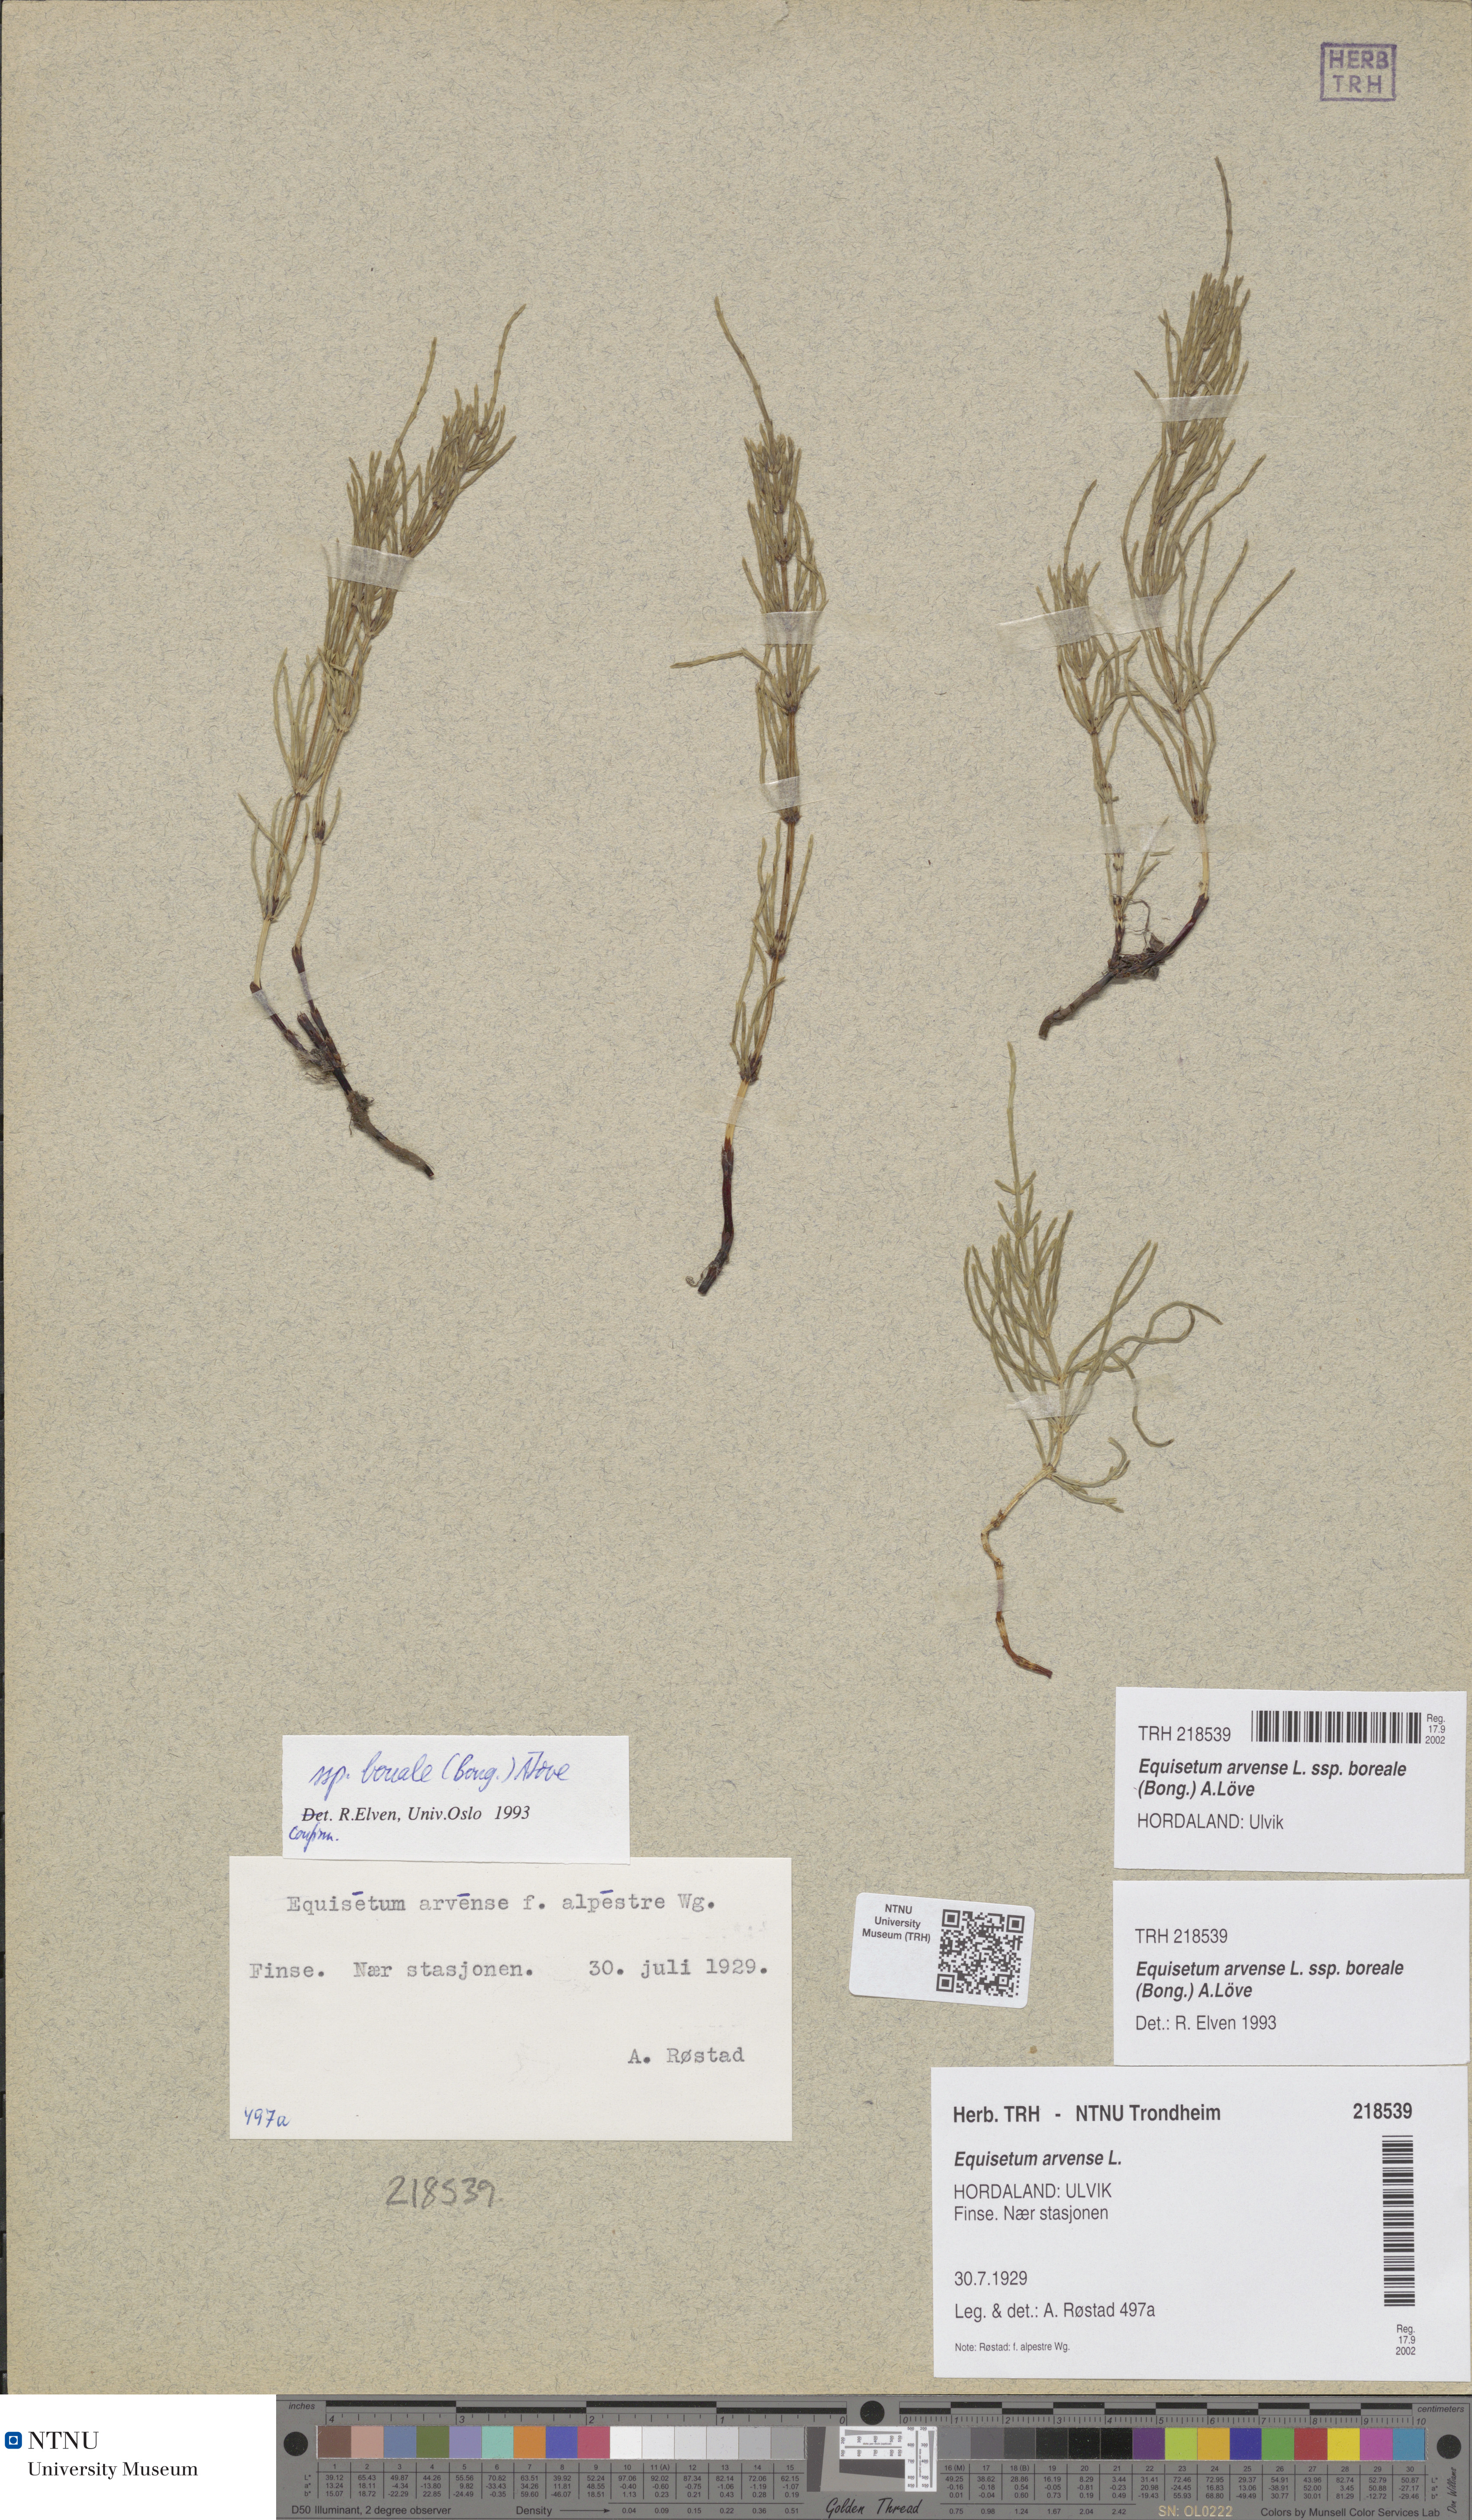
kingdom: Plantae
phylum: Tracheophyta
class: Polypodiopsida
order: Equisetales
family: Equisetaceae
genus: Equisetum
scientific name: Equisetum arvense
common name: Field horsetail
